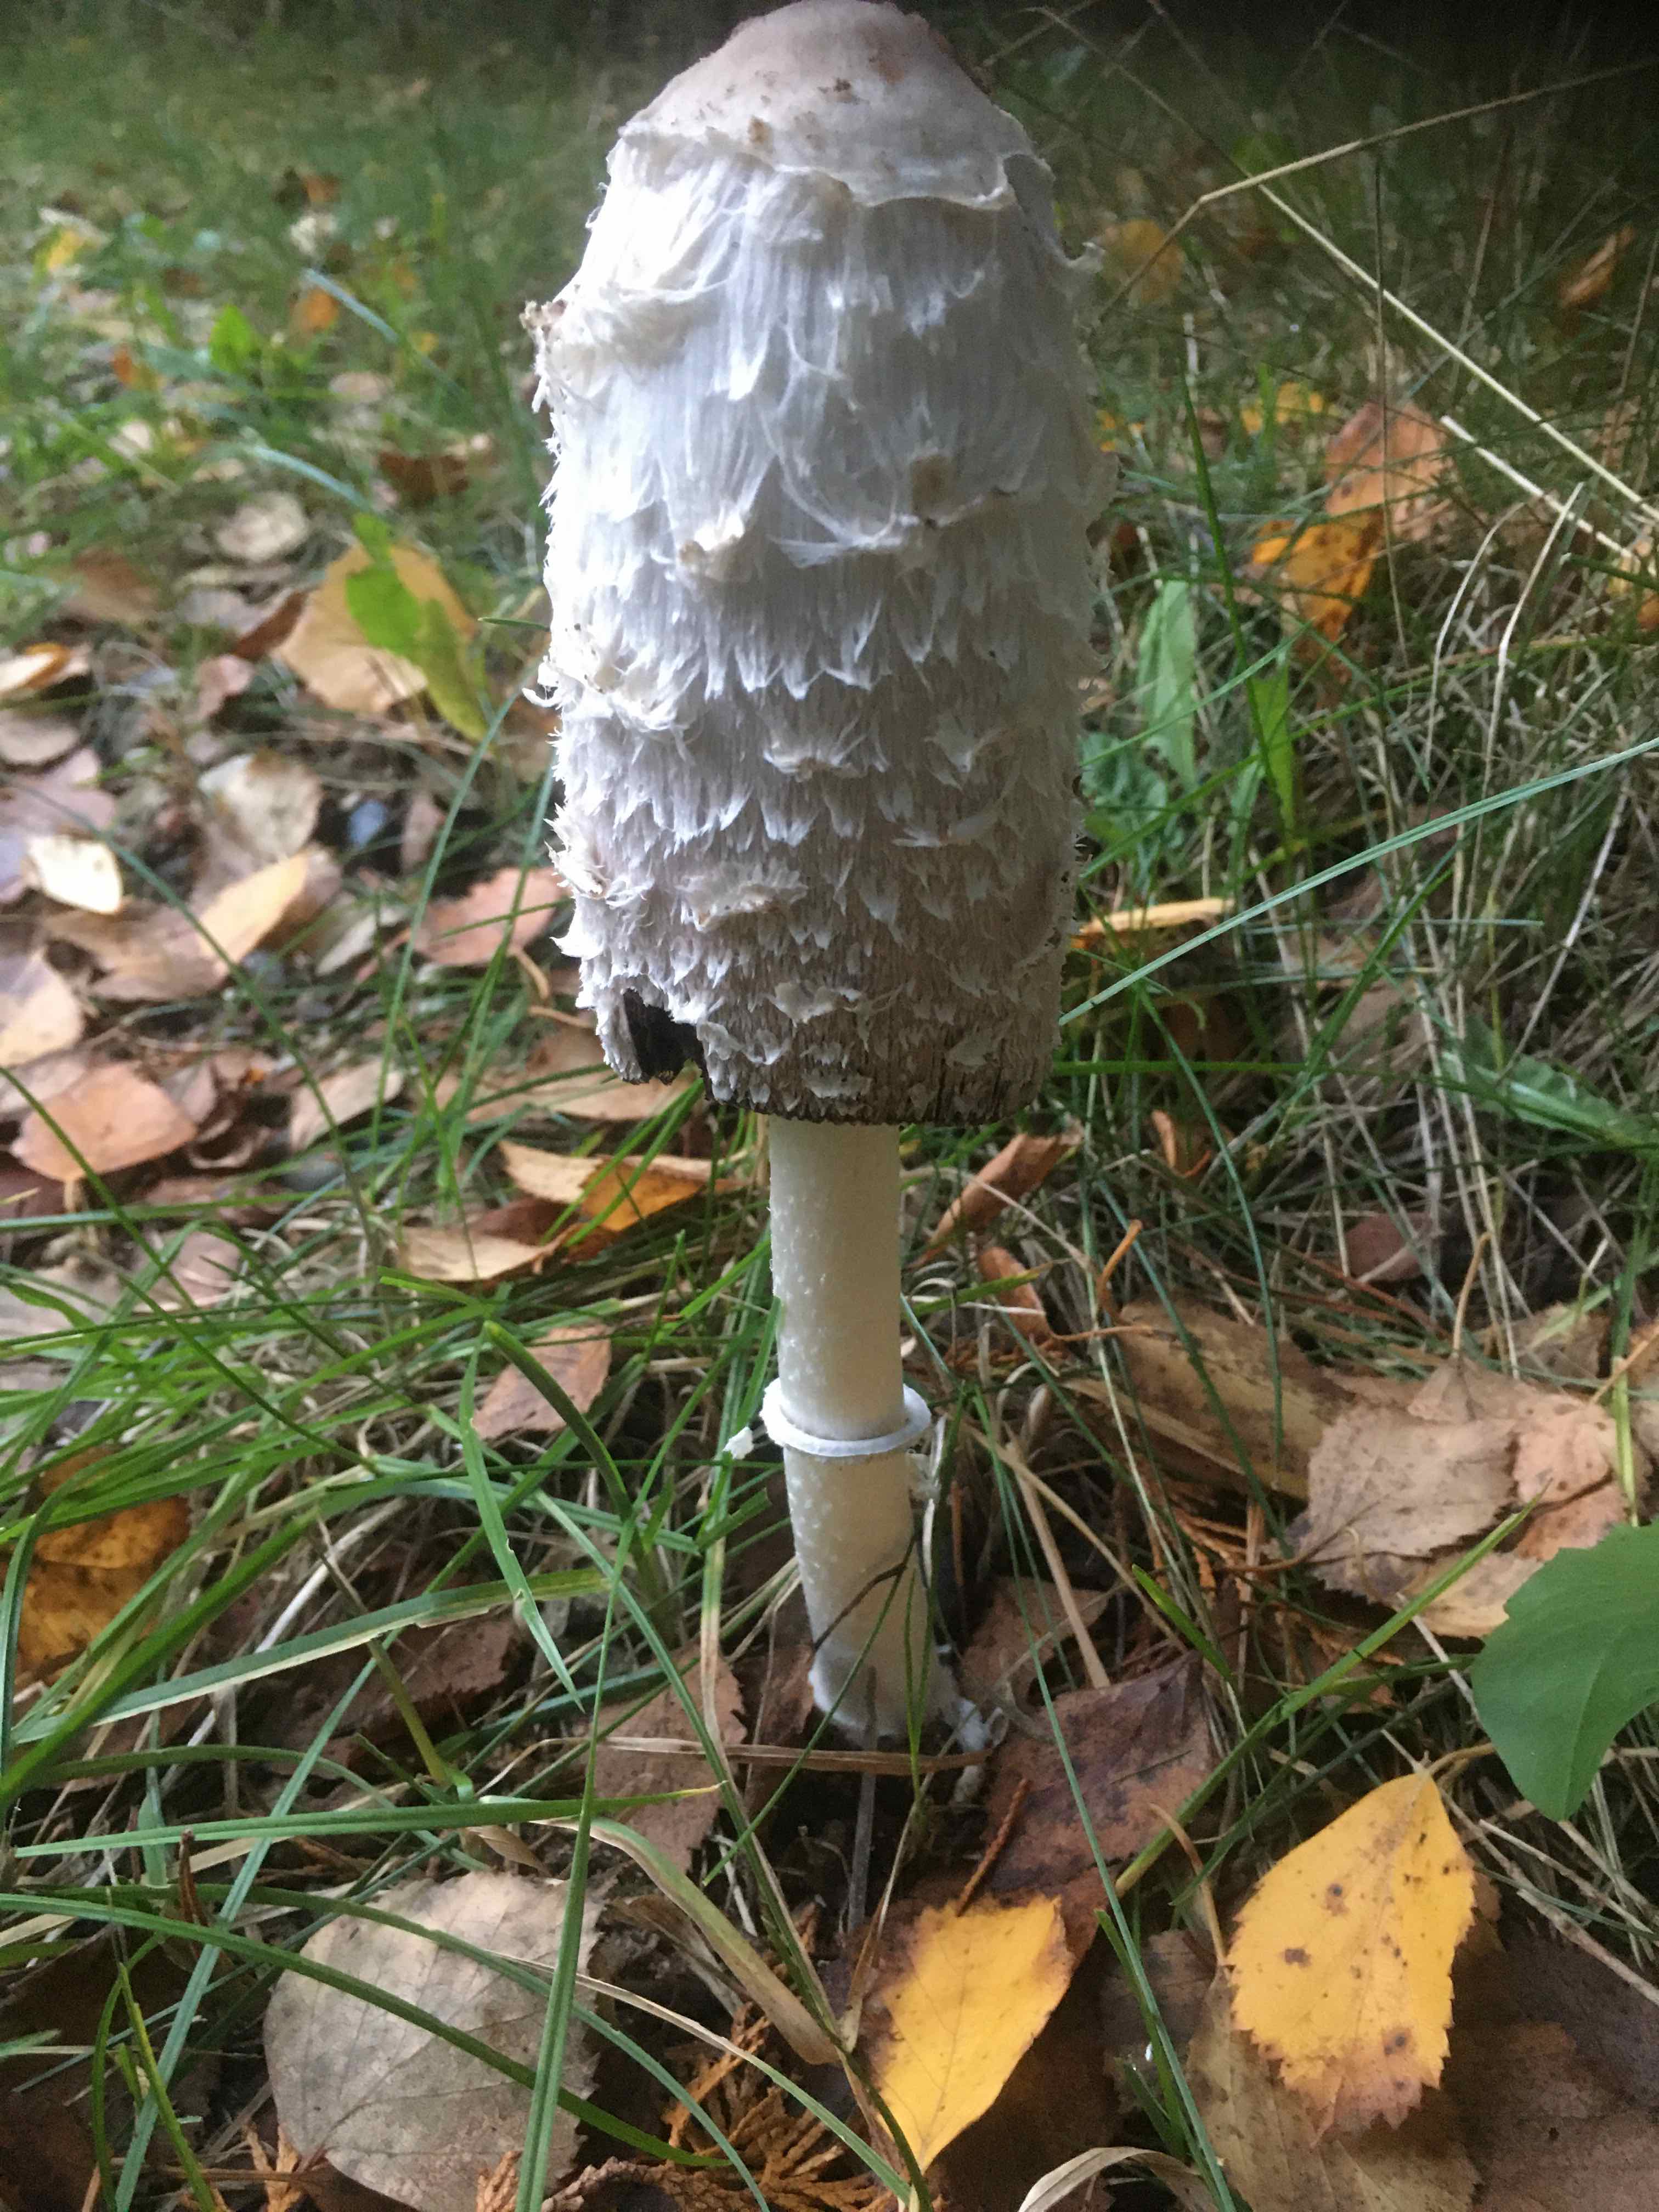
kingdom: Fungi
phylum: Basidiomycota
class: Agaricomycetes
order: Agaricales
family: Agaricaceae
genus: Coprinus
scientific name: Coprinus comatus
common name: stor parykhat
